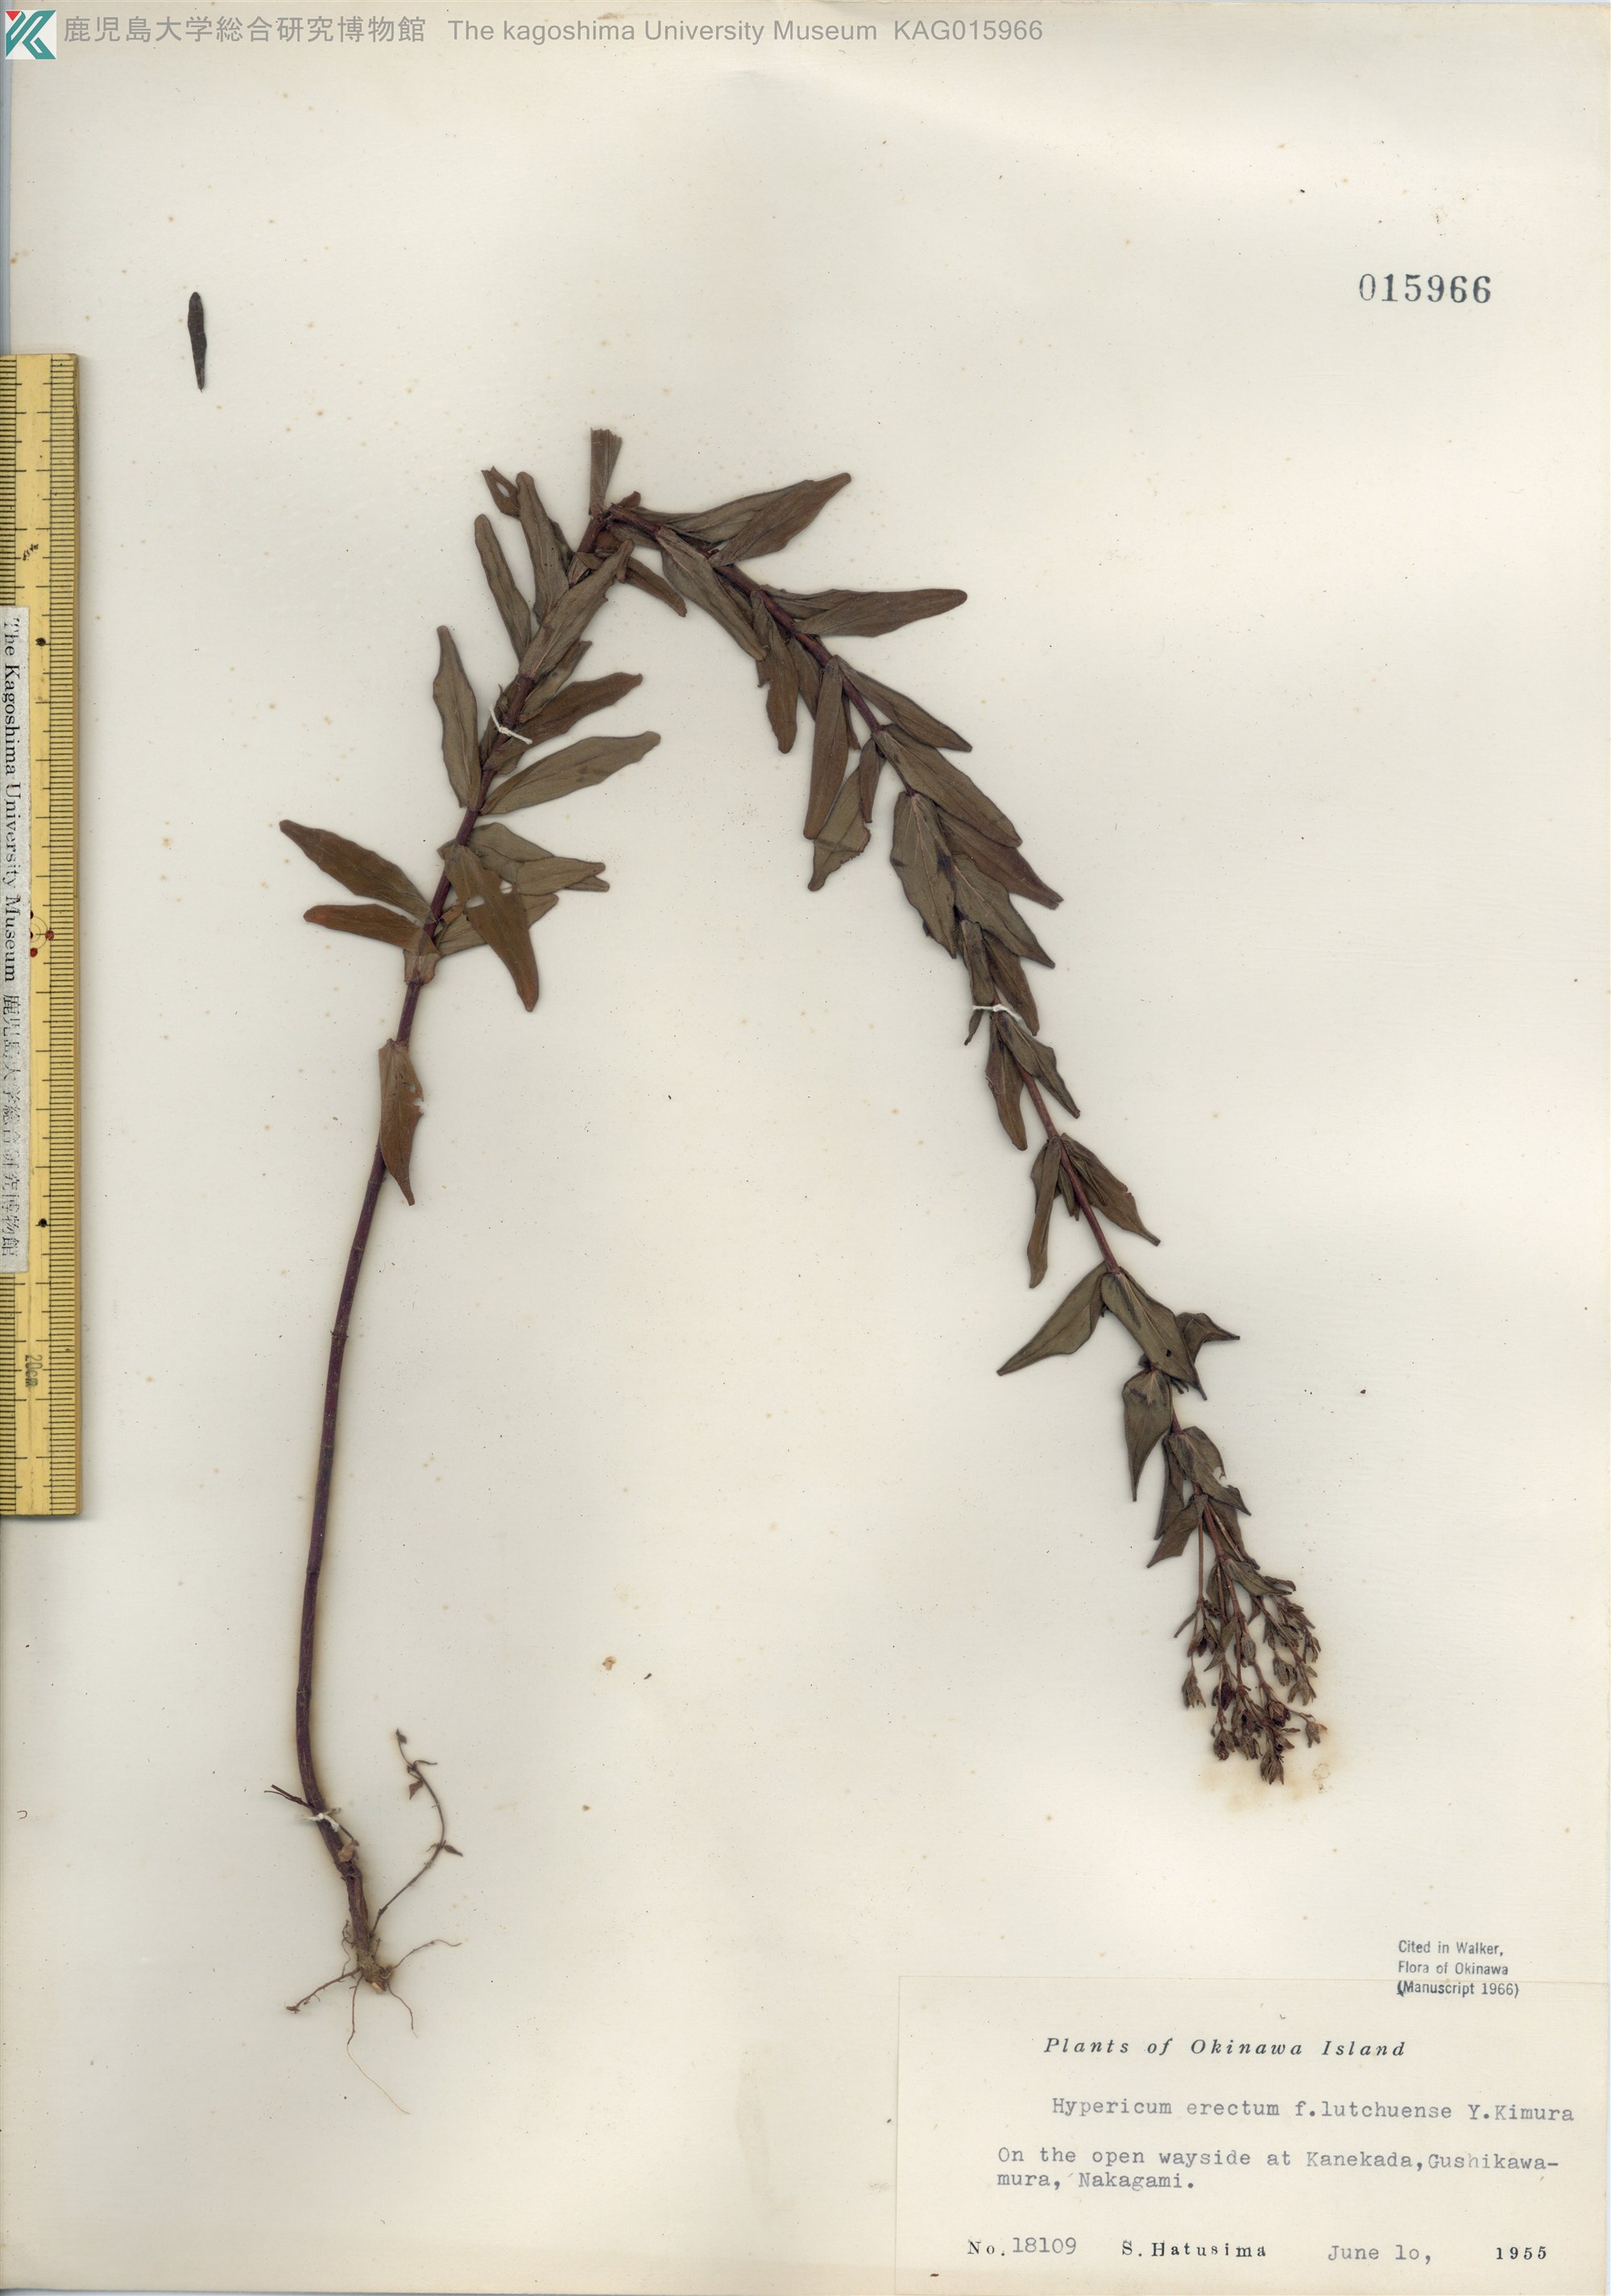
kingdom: Plantae
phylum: Tracheophyta
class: Magnoliopsida
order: Malpighiales
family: Hypericaceae
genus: Hypericum
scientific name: Hypericum erectum
